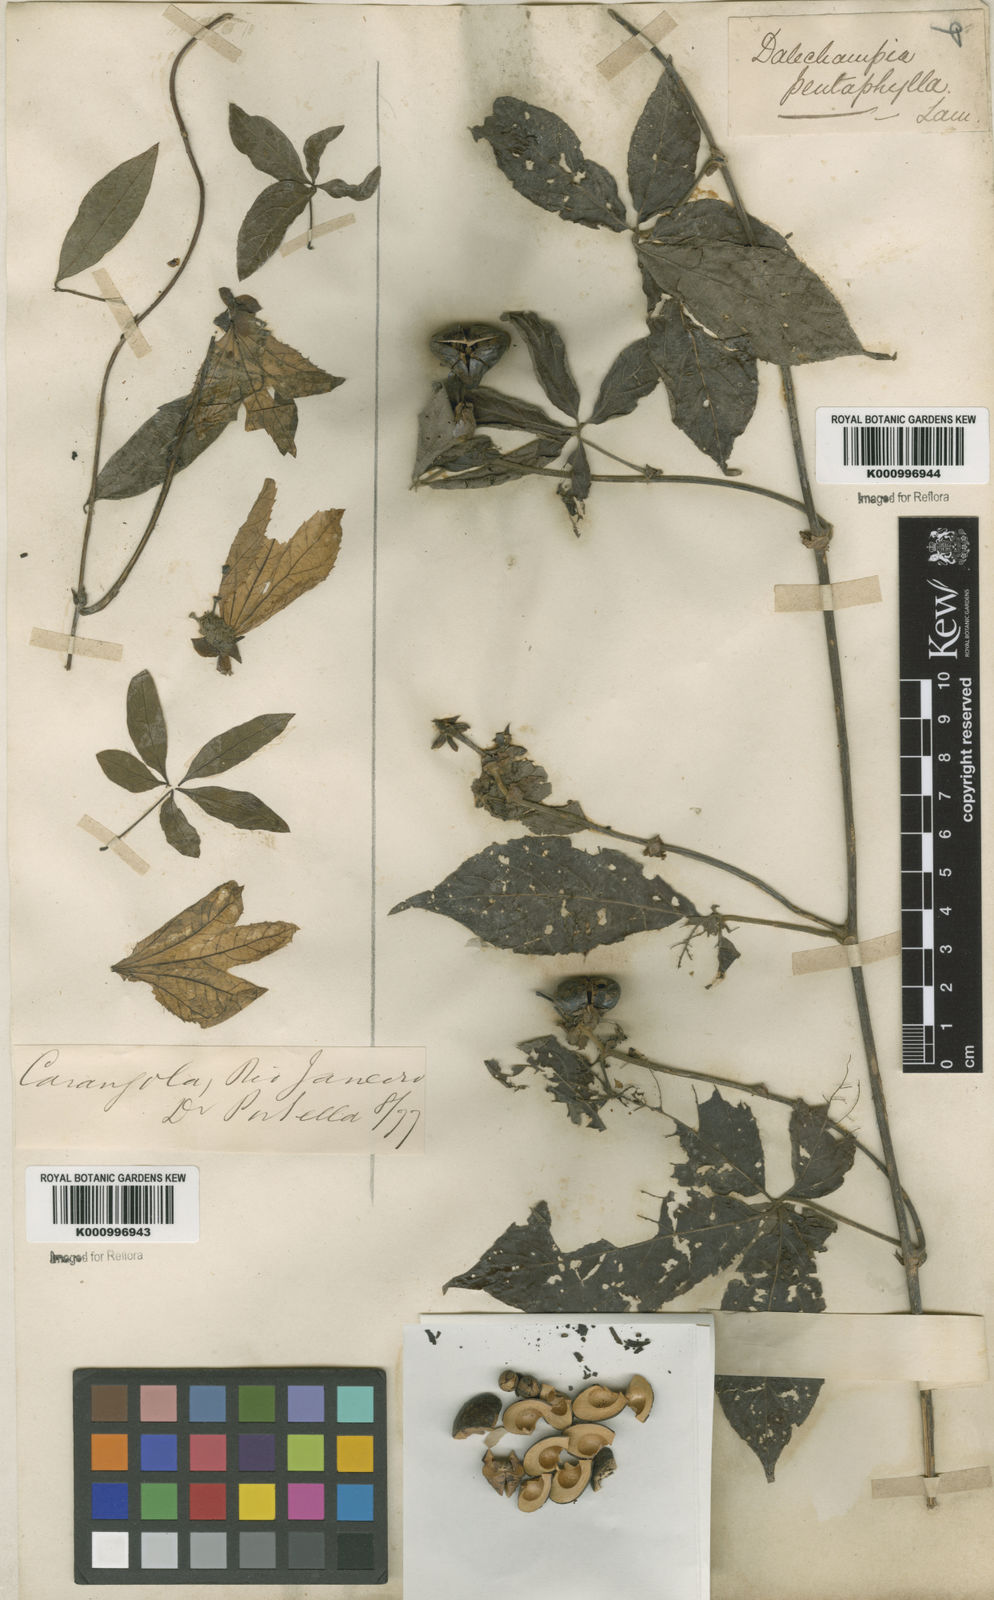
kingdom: Plantae
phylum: Tracheophyta
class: Magnoliopsida
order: Malpighiales
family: Euphorbiaceae
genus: Dalechampia
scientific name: Dalechampia pentaphylla
